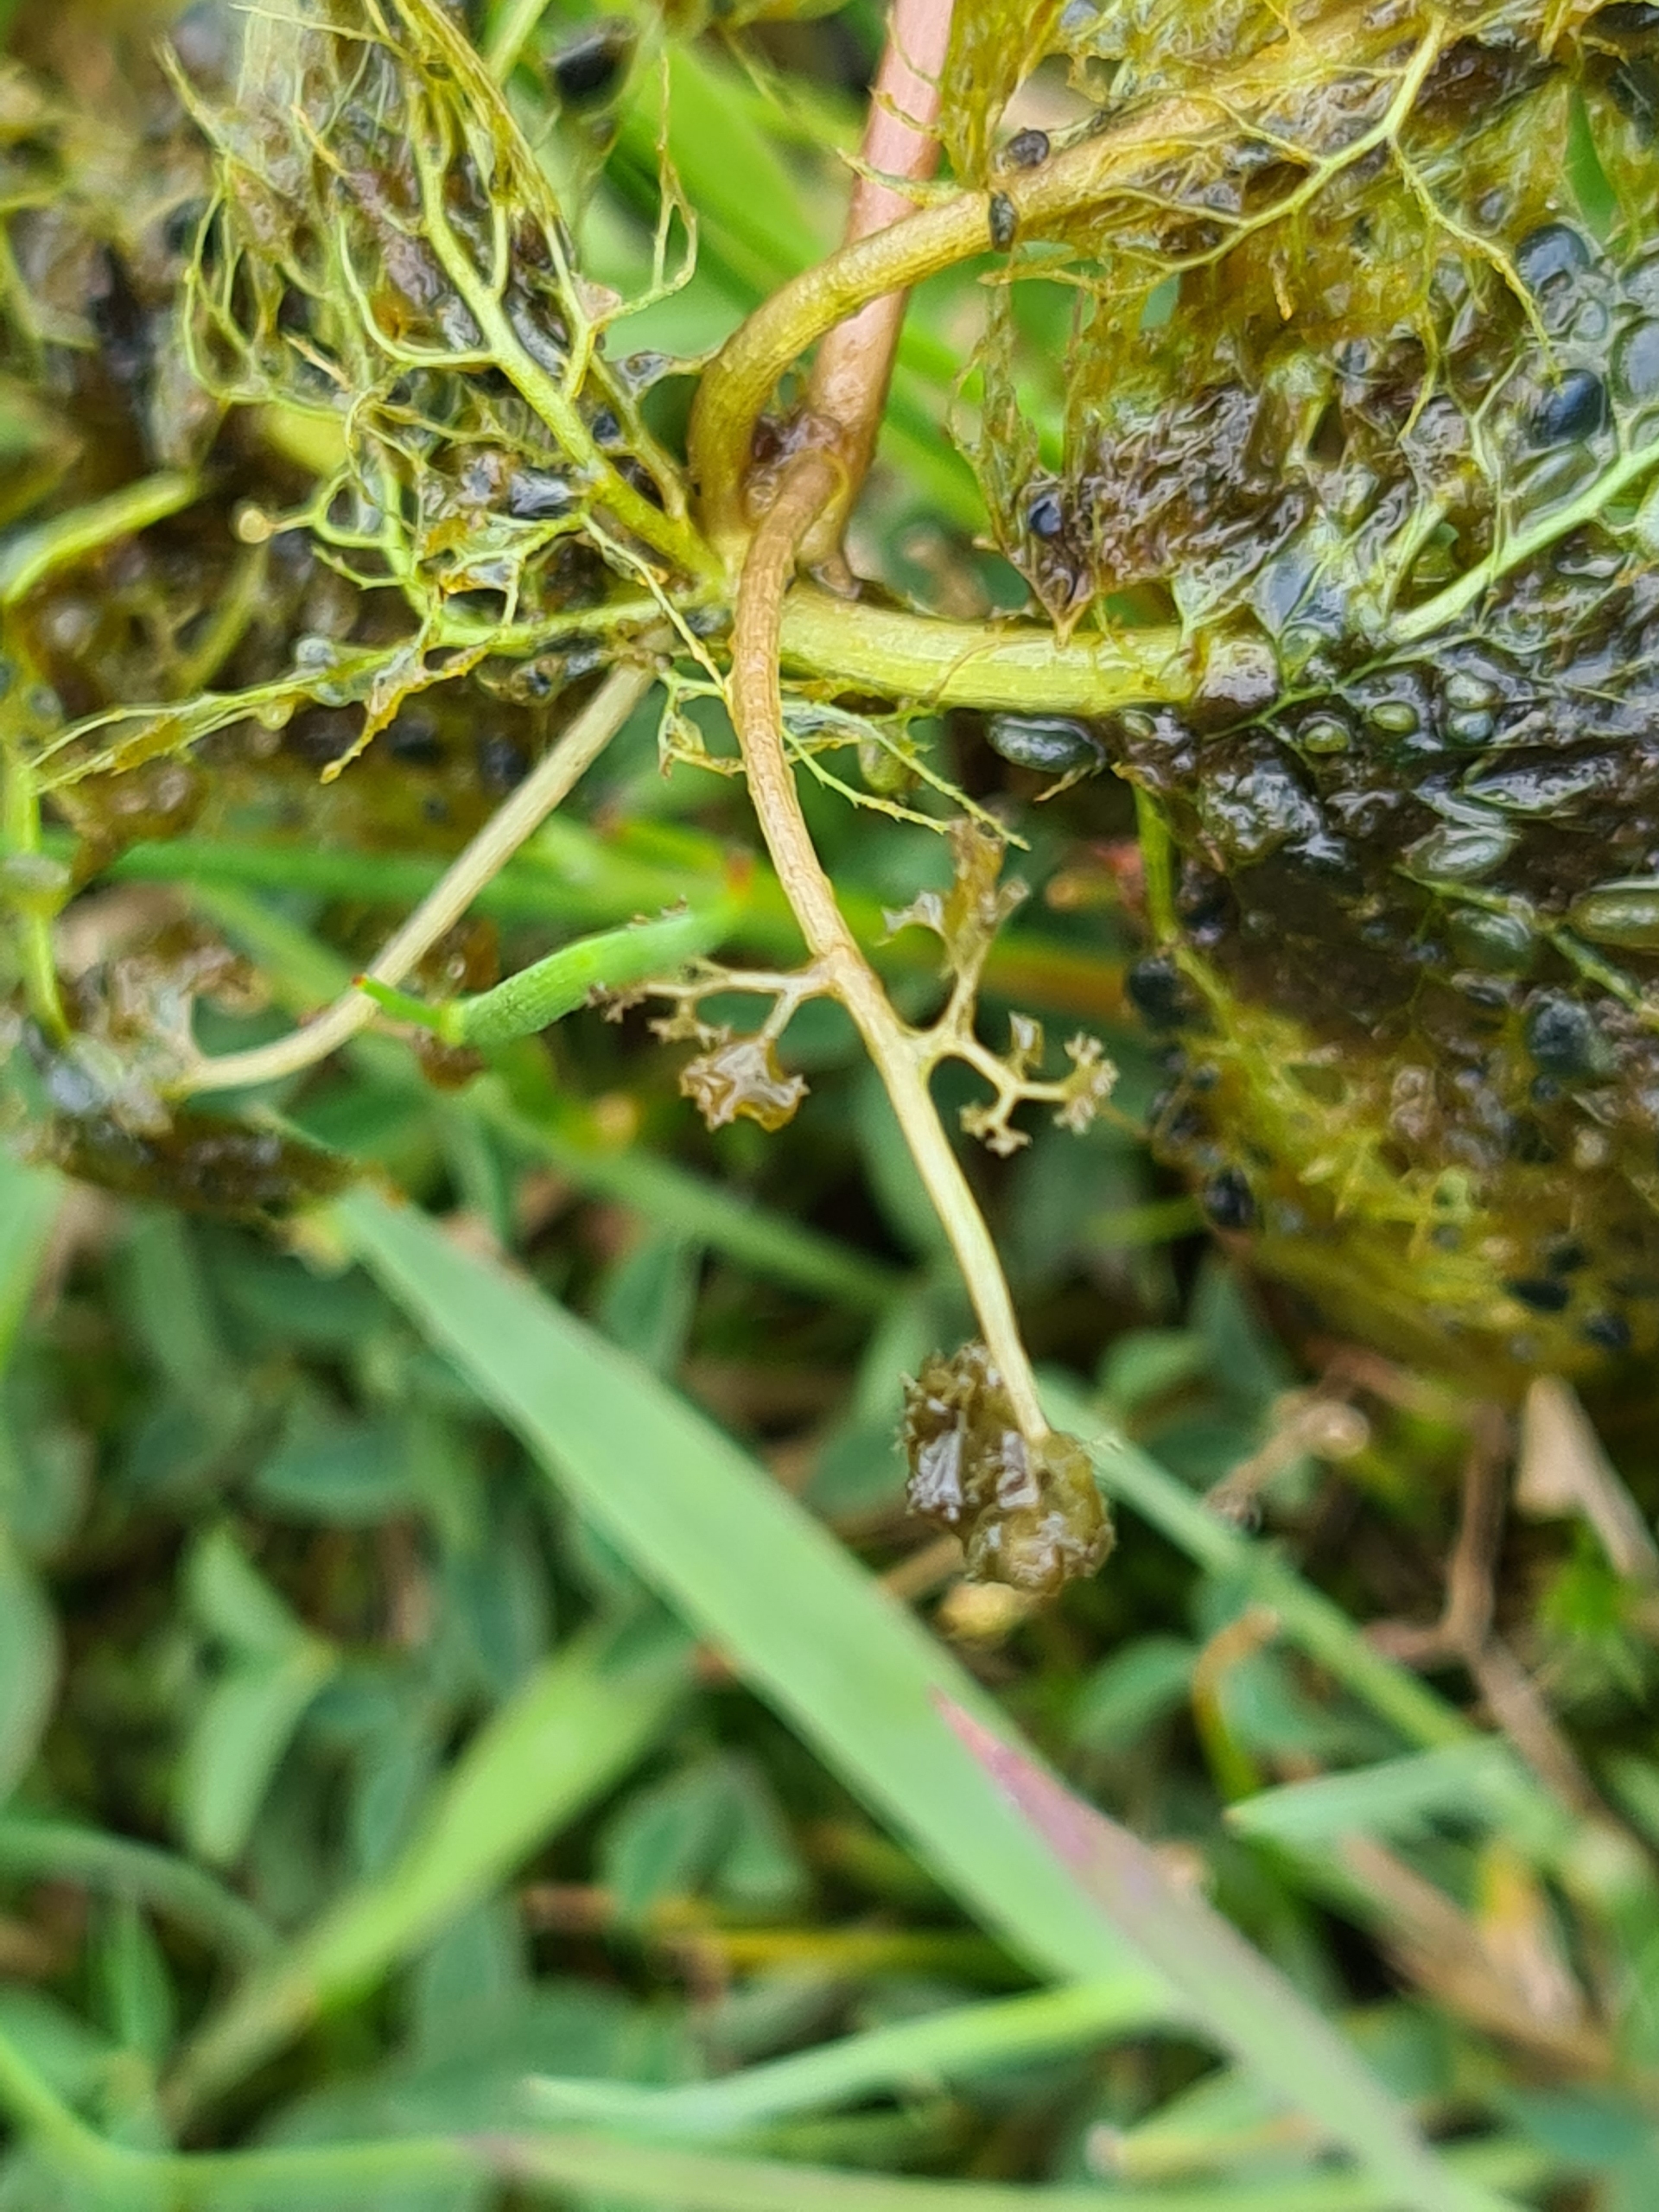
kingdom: Plantae
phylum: Tracheophyta
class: Magnoliopsida
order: Lamiales
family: Lentibulariaceae
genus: Utricularia
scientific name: Utricularia australis
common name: Slank blærerod
